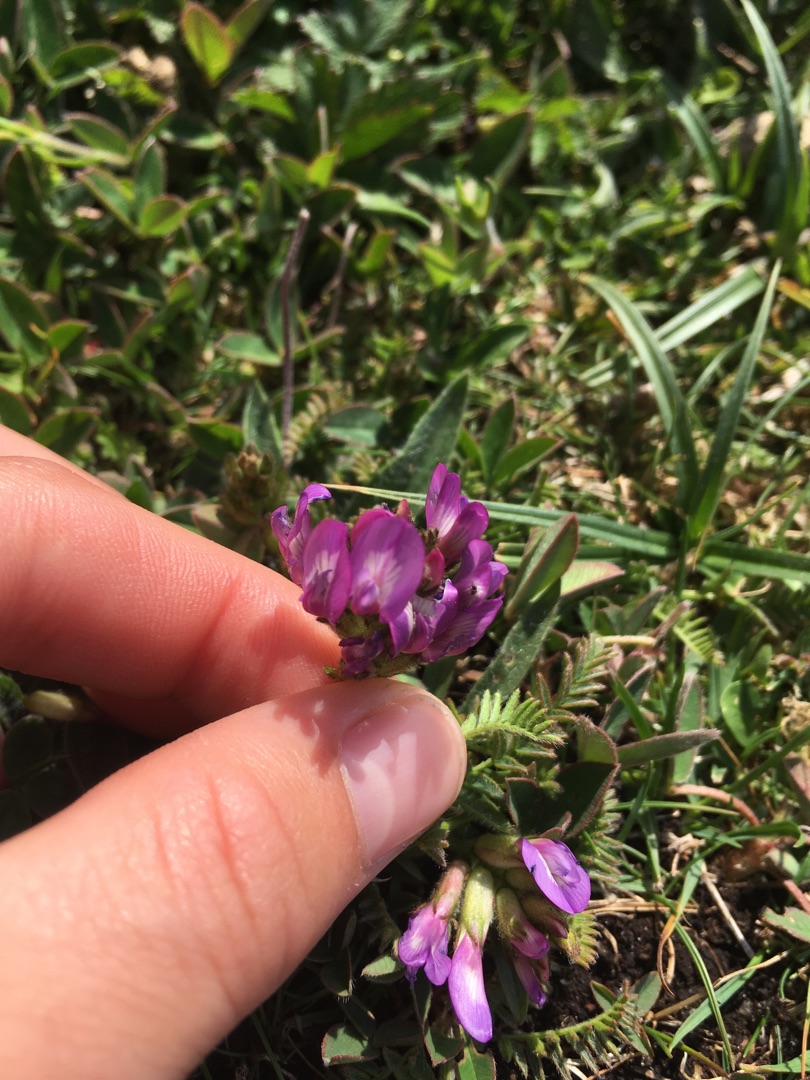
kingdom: Plantae
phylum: Tracheophyta
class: Magnoliopsida
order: Fabales
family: Fabaceae
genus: Astragalus
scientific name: Astragalus danicus
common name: Dansk astragel
